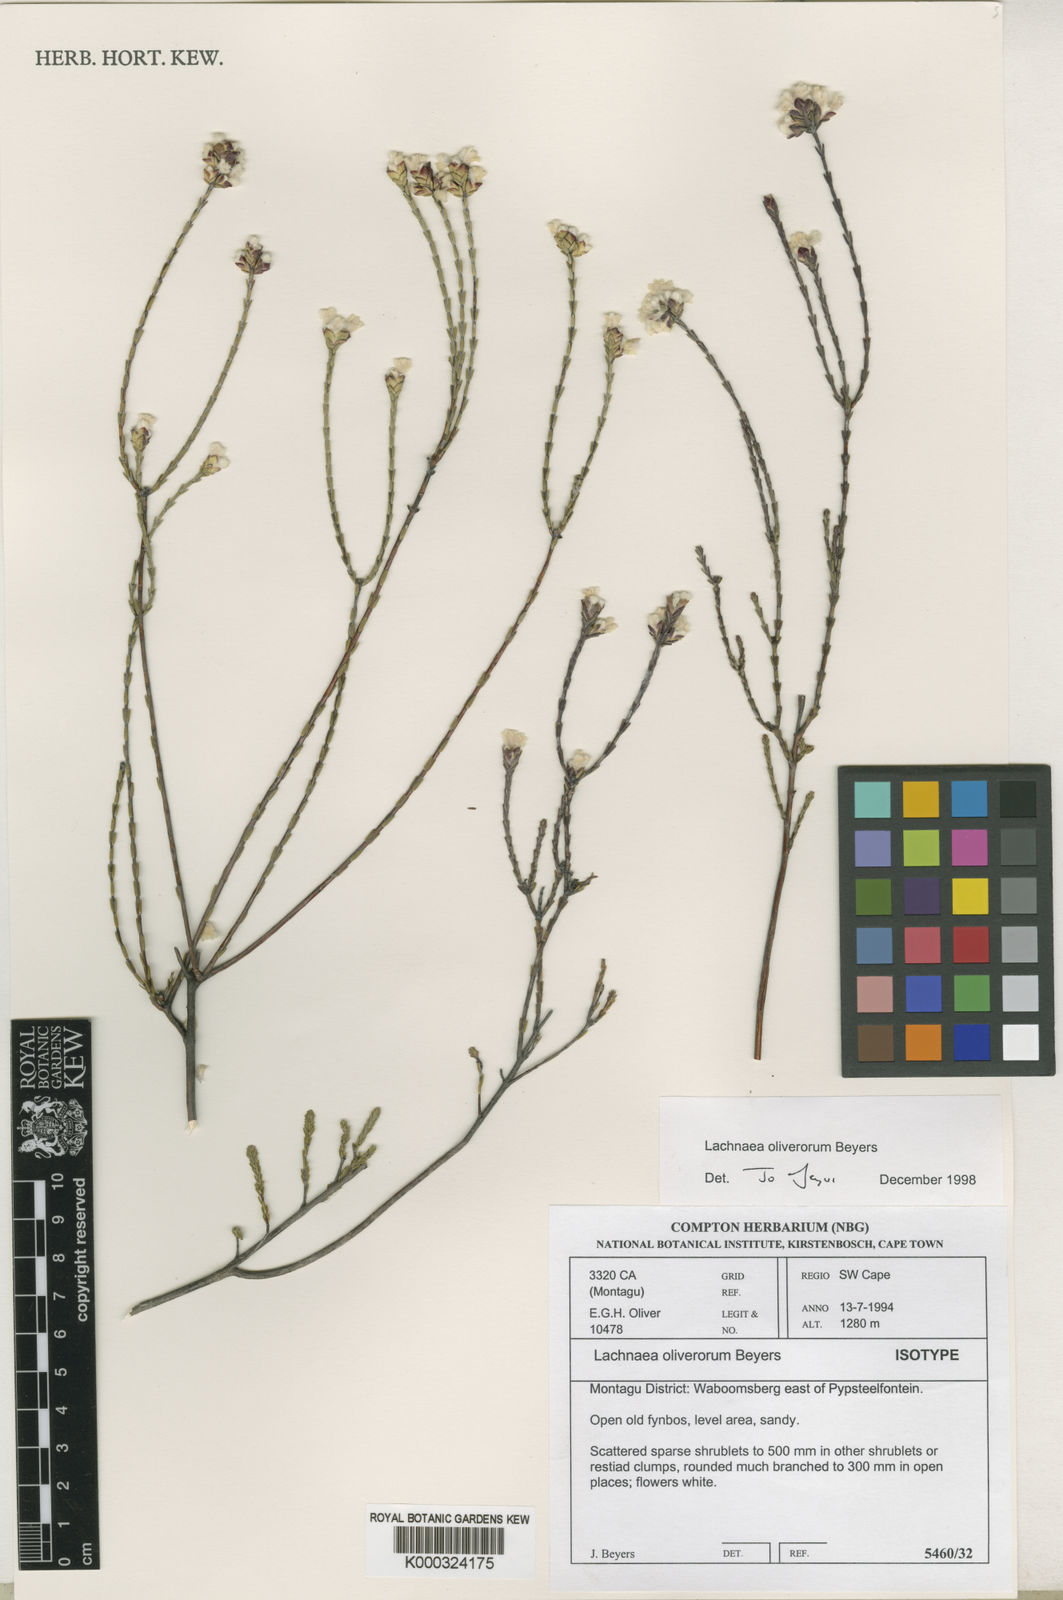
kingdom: Plantae
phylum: Tracheophyta
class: Magnoliopsida
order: Malvales
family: Thymelaeaceae
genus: Lachnaea
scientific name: Lachnaea oliverorum
